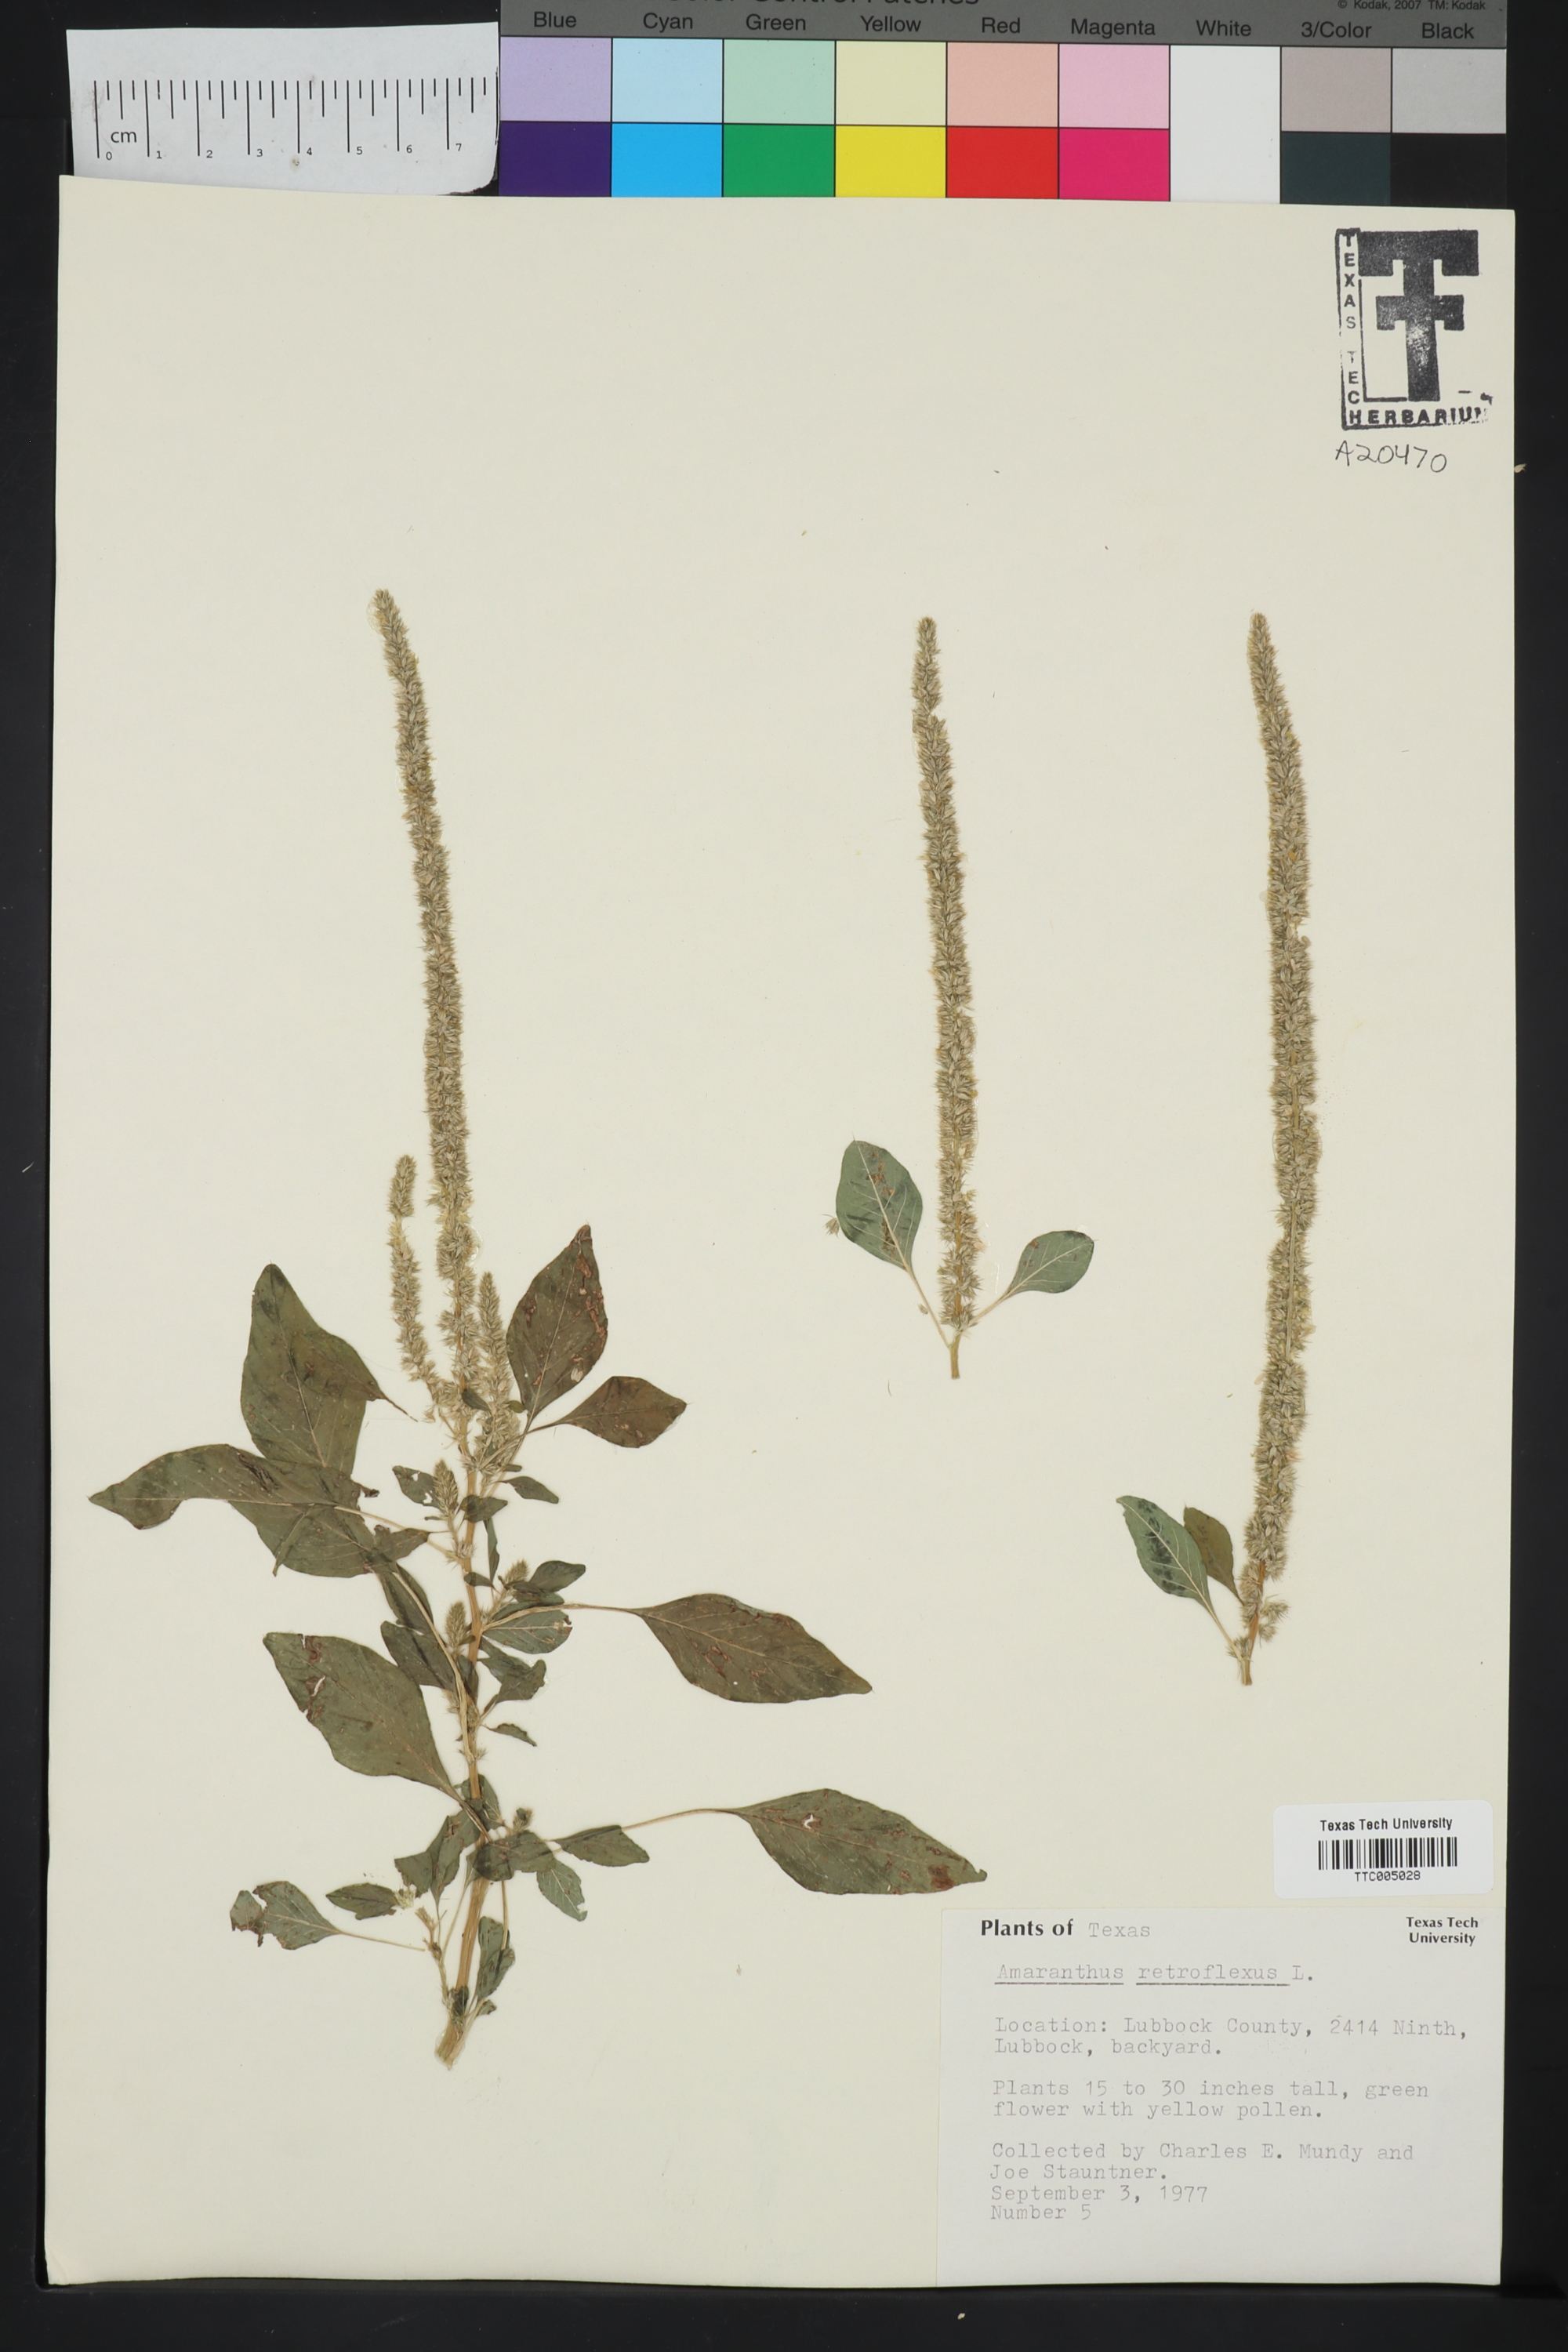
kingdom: Plantae
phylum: Tracheophyta
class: Magnoliopsida
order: Caryophyllales
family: Amaranthaceae
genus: Amaranthus
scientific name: Amaranthus retroflexus
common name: Redroot amaranth
